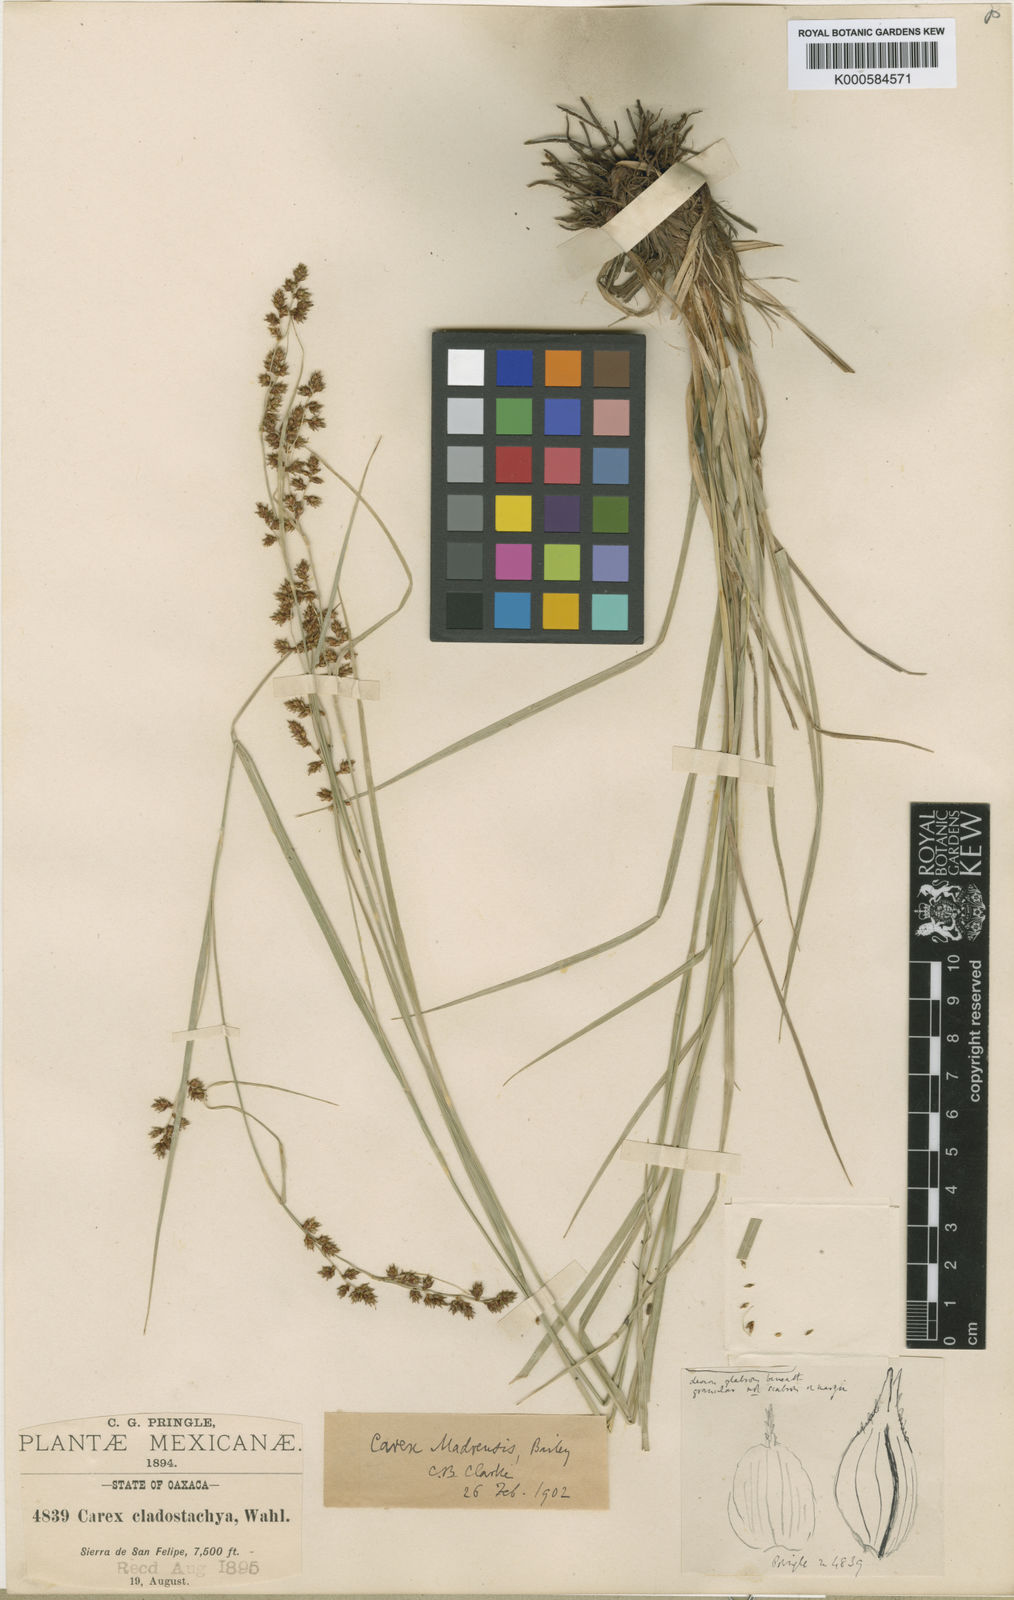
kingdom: Plantae
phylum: Tracheophyta
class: Liliopsida
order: Poales
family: Cyperaceae
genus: Carex
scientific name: Carex aztecica
